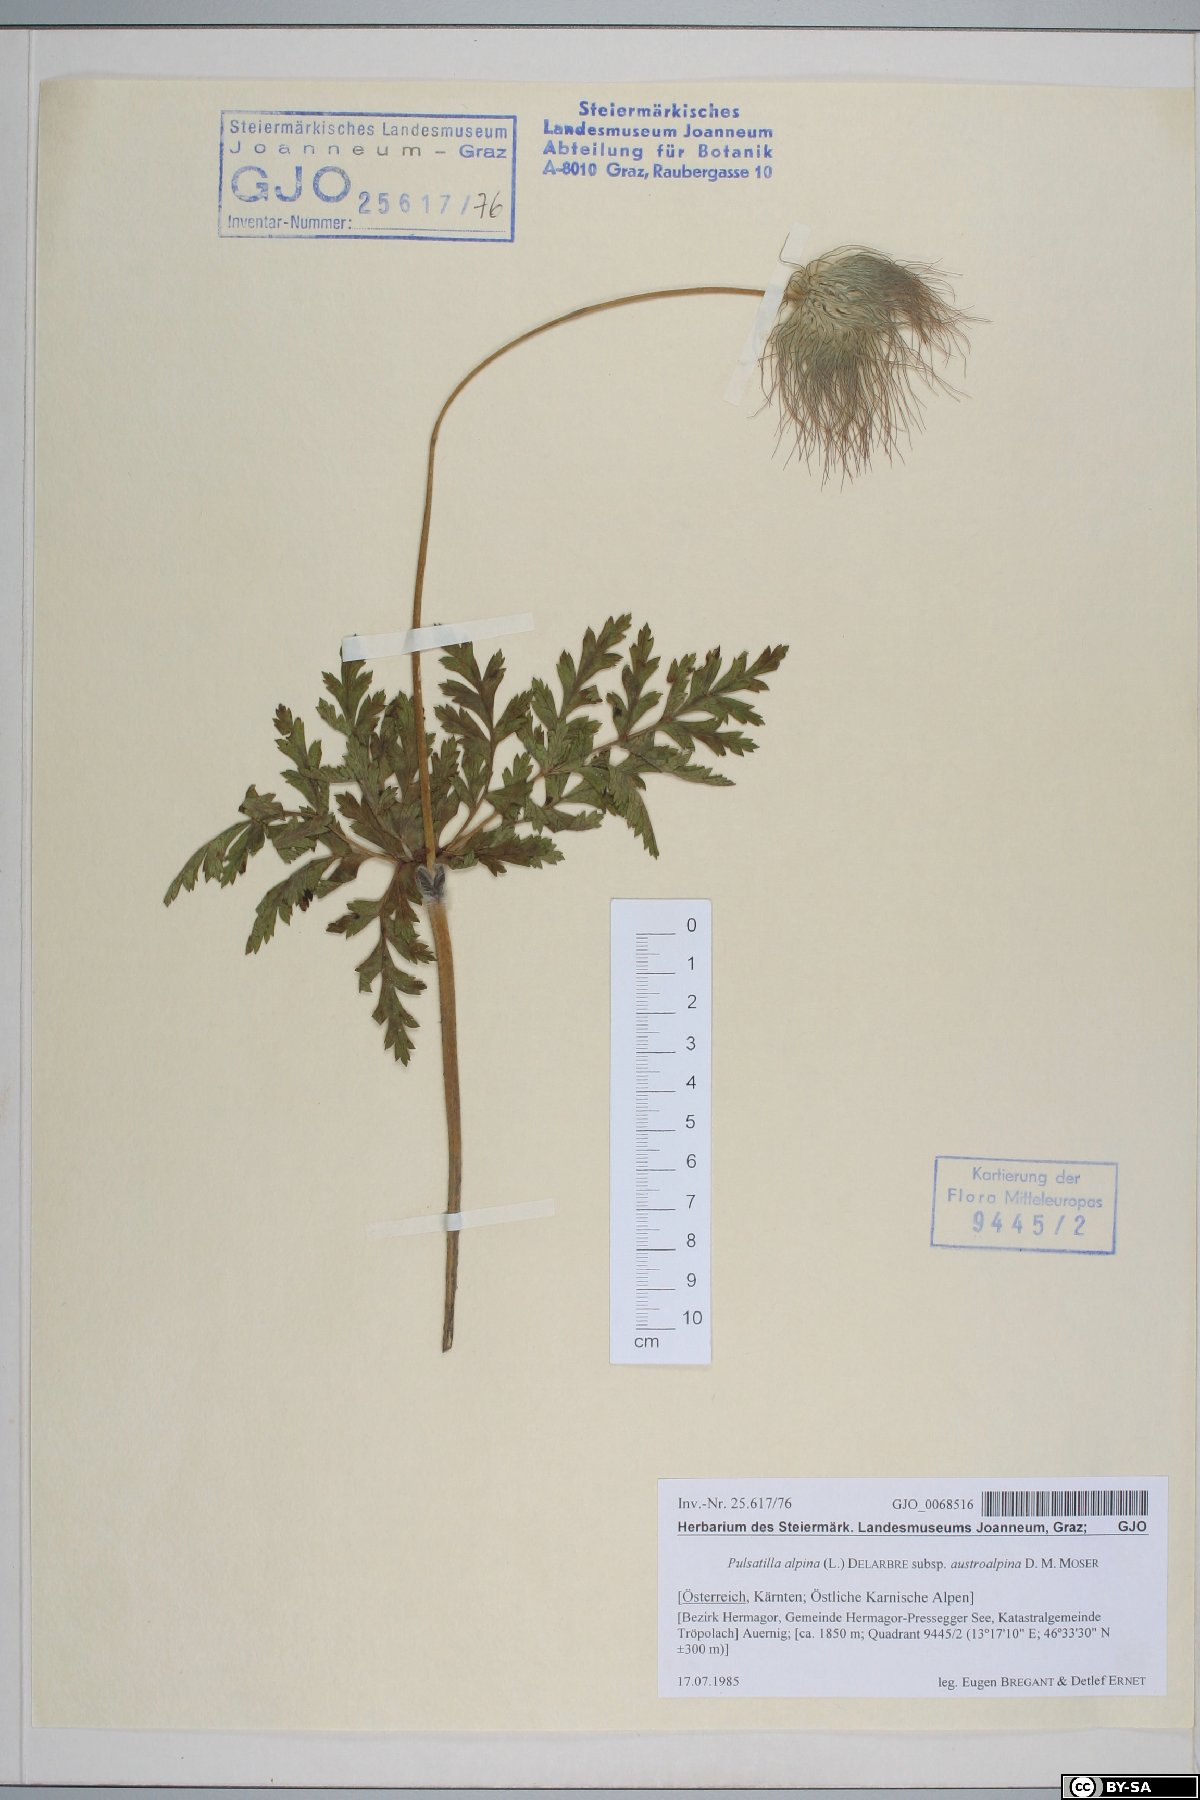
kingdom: Plantae
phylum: Tracheophyta
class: Magnoliopsida
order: Ranunculales
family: Ranunculaceae
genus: Pulsatilla
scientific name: Pulsatilla alpina
